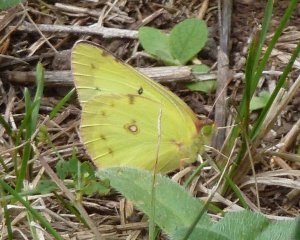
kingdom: Animalia
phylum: Arthropoda
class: Insecta
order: Lepidoptera
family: Pieridae
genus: Colias
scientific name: Colias philodice
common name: Clouded Sulphur
